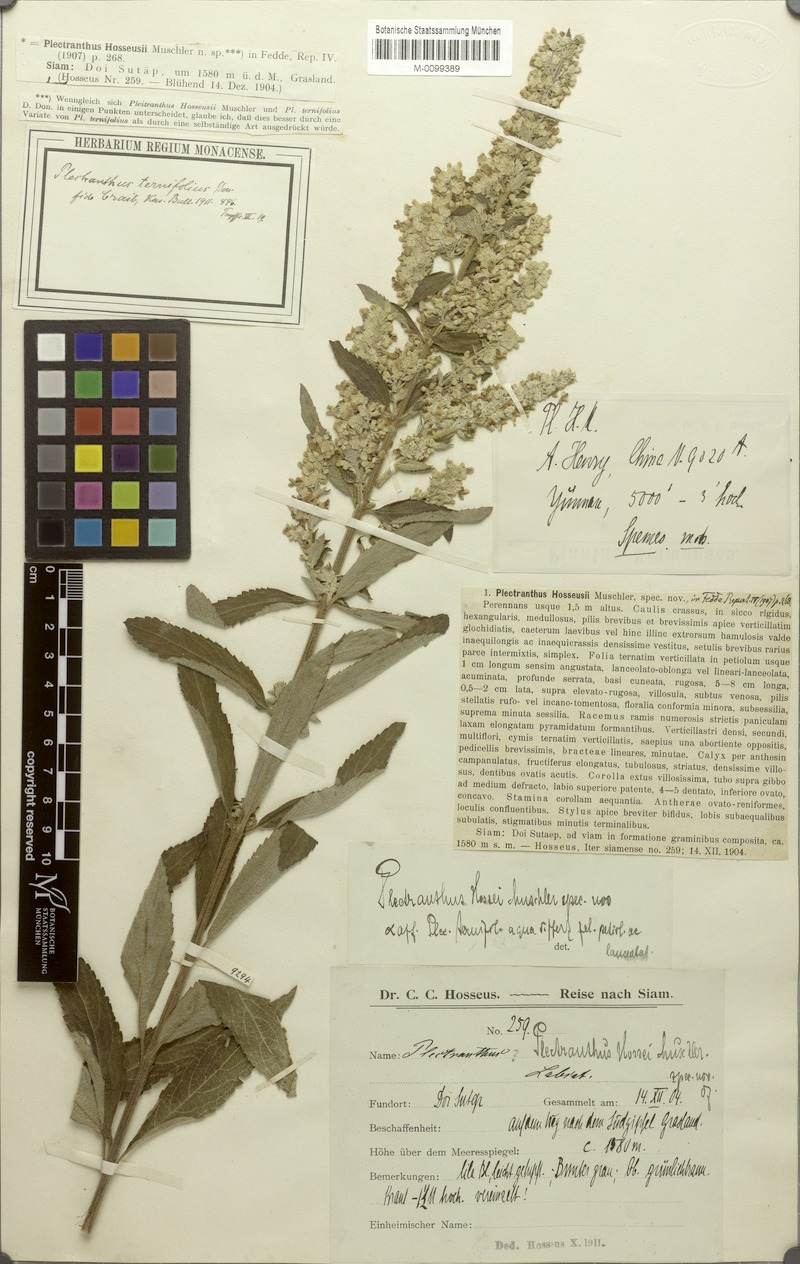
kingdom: Plantae
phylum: Tracheophyta
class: Magnoliopsida
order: Lamiales
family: Lamiaceae
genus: Isodon
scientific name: Isodon ternifolius
